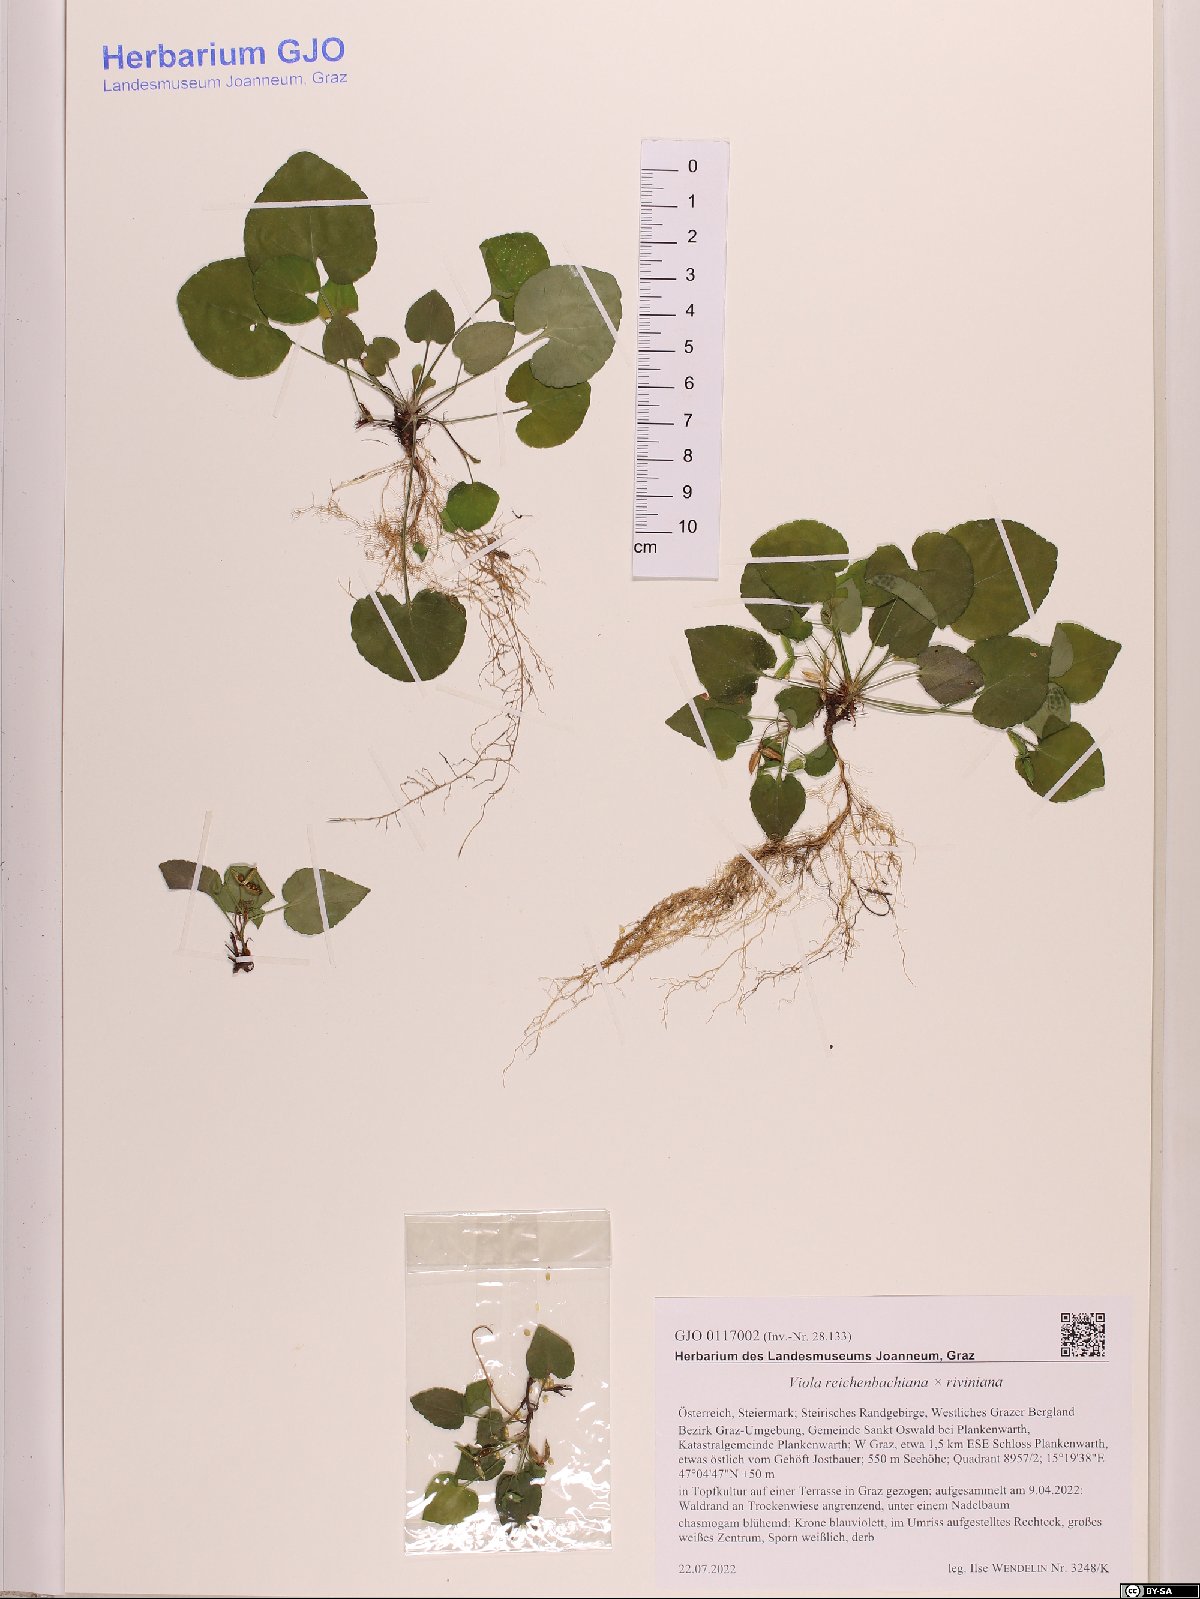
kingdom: Plantae
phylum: Tracheophyta
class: Magnoliopsida
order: Malpighiales
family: Violaceae
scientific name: Violaceae
